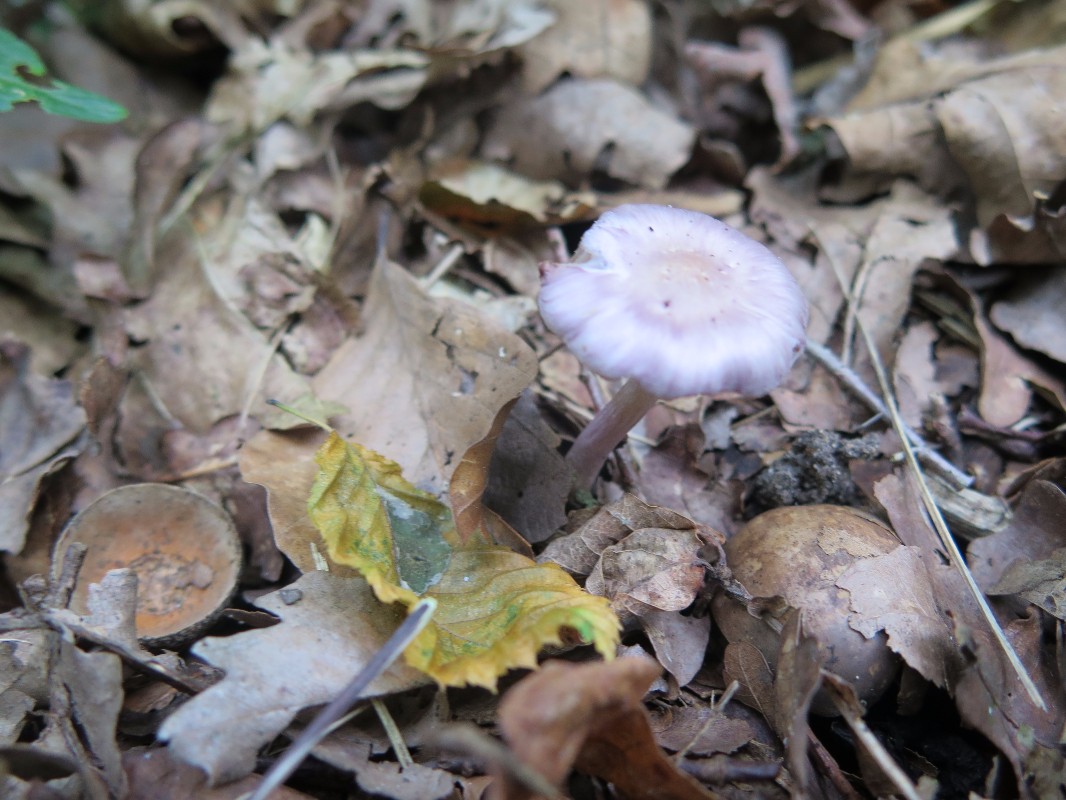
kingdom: Fungi
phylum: Basidiomycota
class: Agaricomycetes
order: Agaricales
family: Inocybaceae
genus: Inocybe
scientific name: Inocybe geophylla
